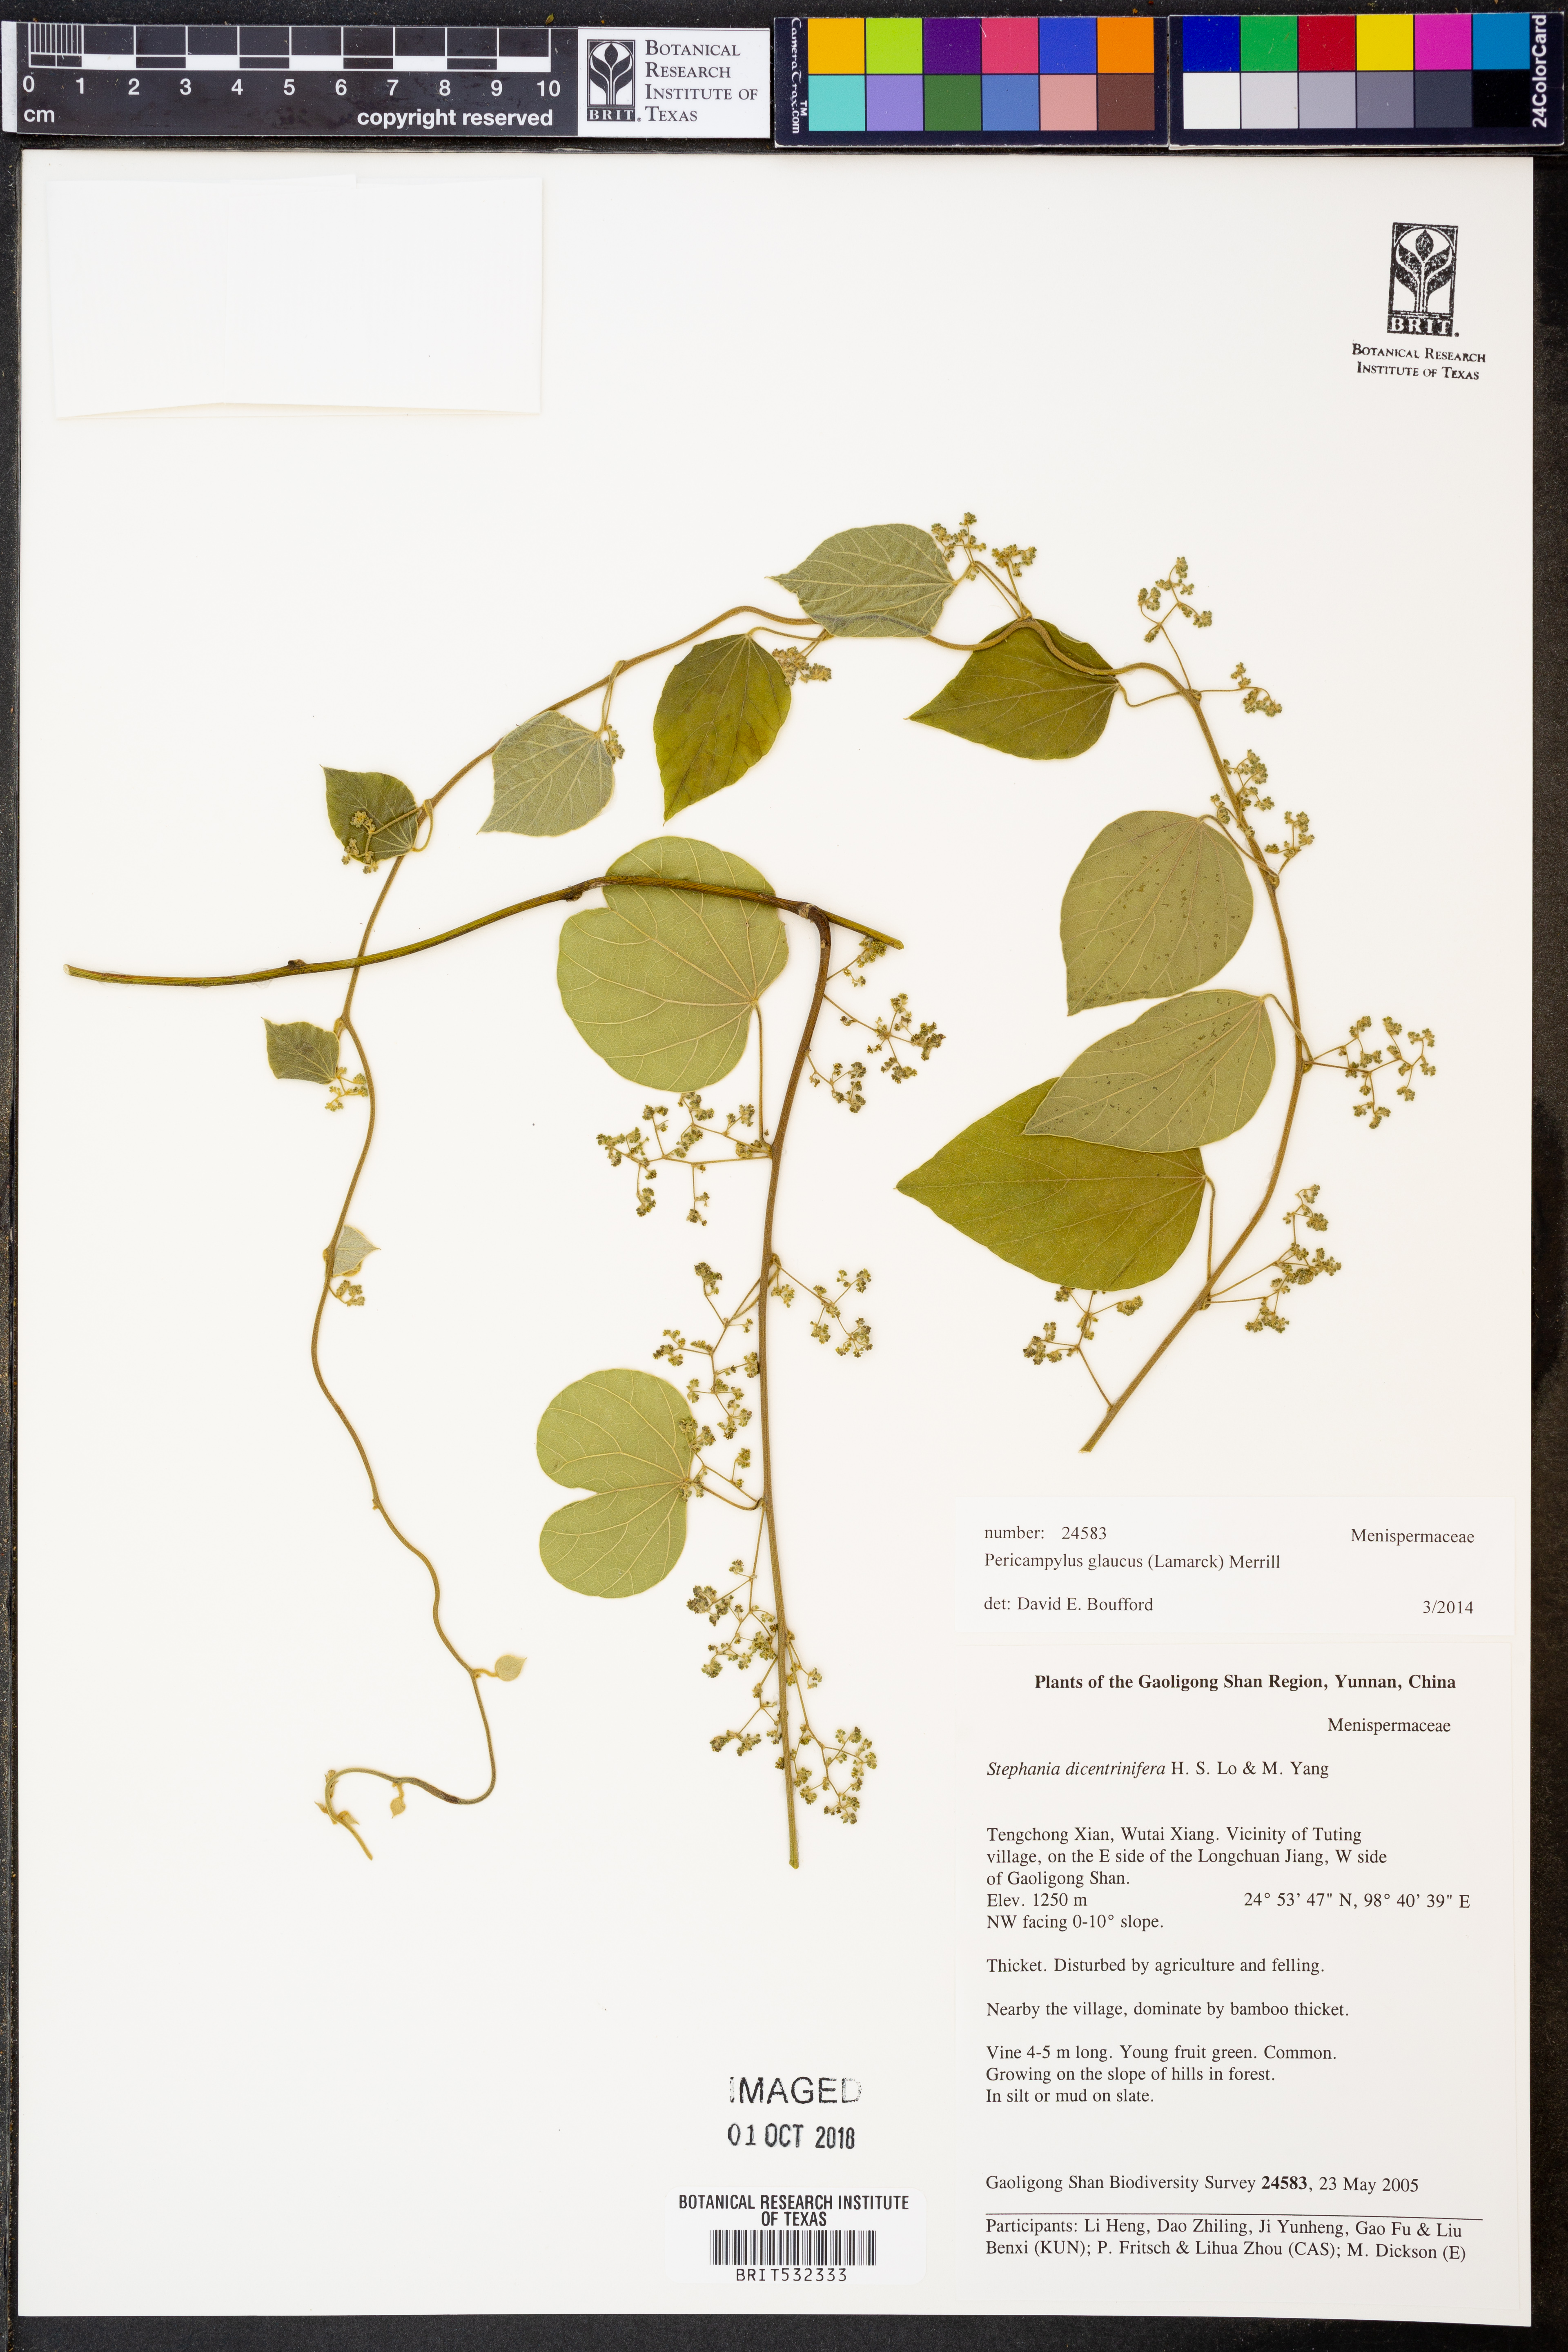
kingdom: Plantae
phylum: Tracheophyta
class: Magnoliopsida
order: Ranunculales
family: Menispermaceae
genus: Pericampylus
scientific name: Pericampylus glaucus
